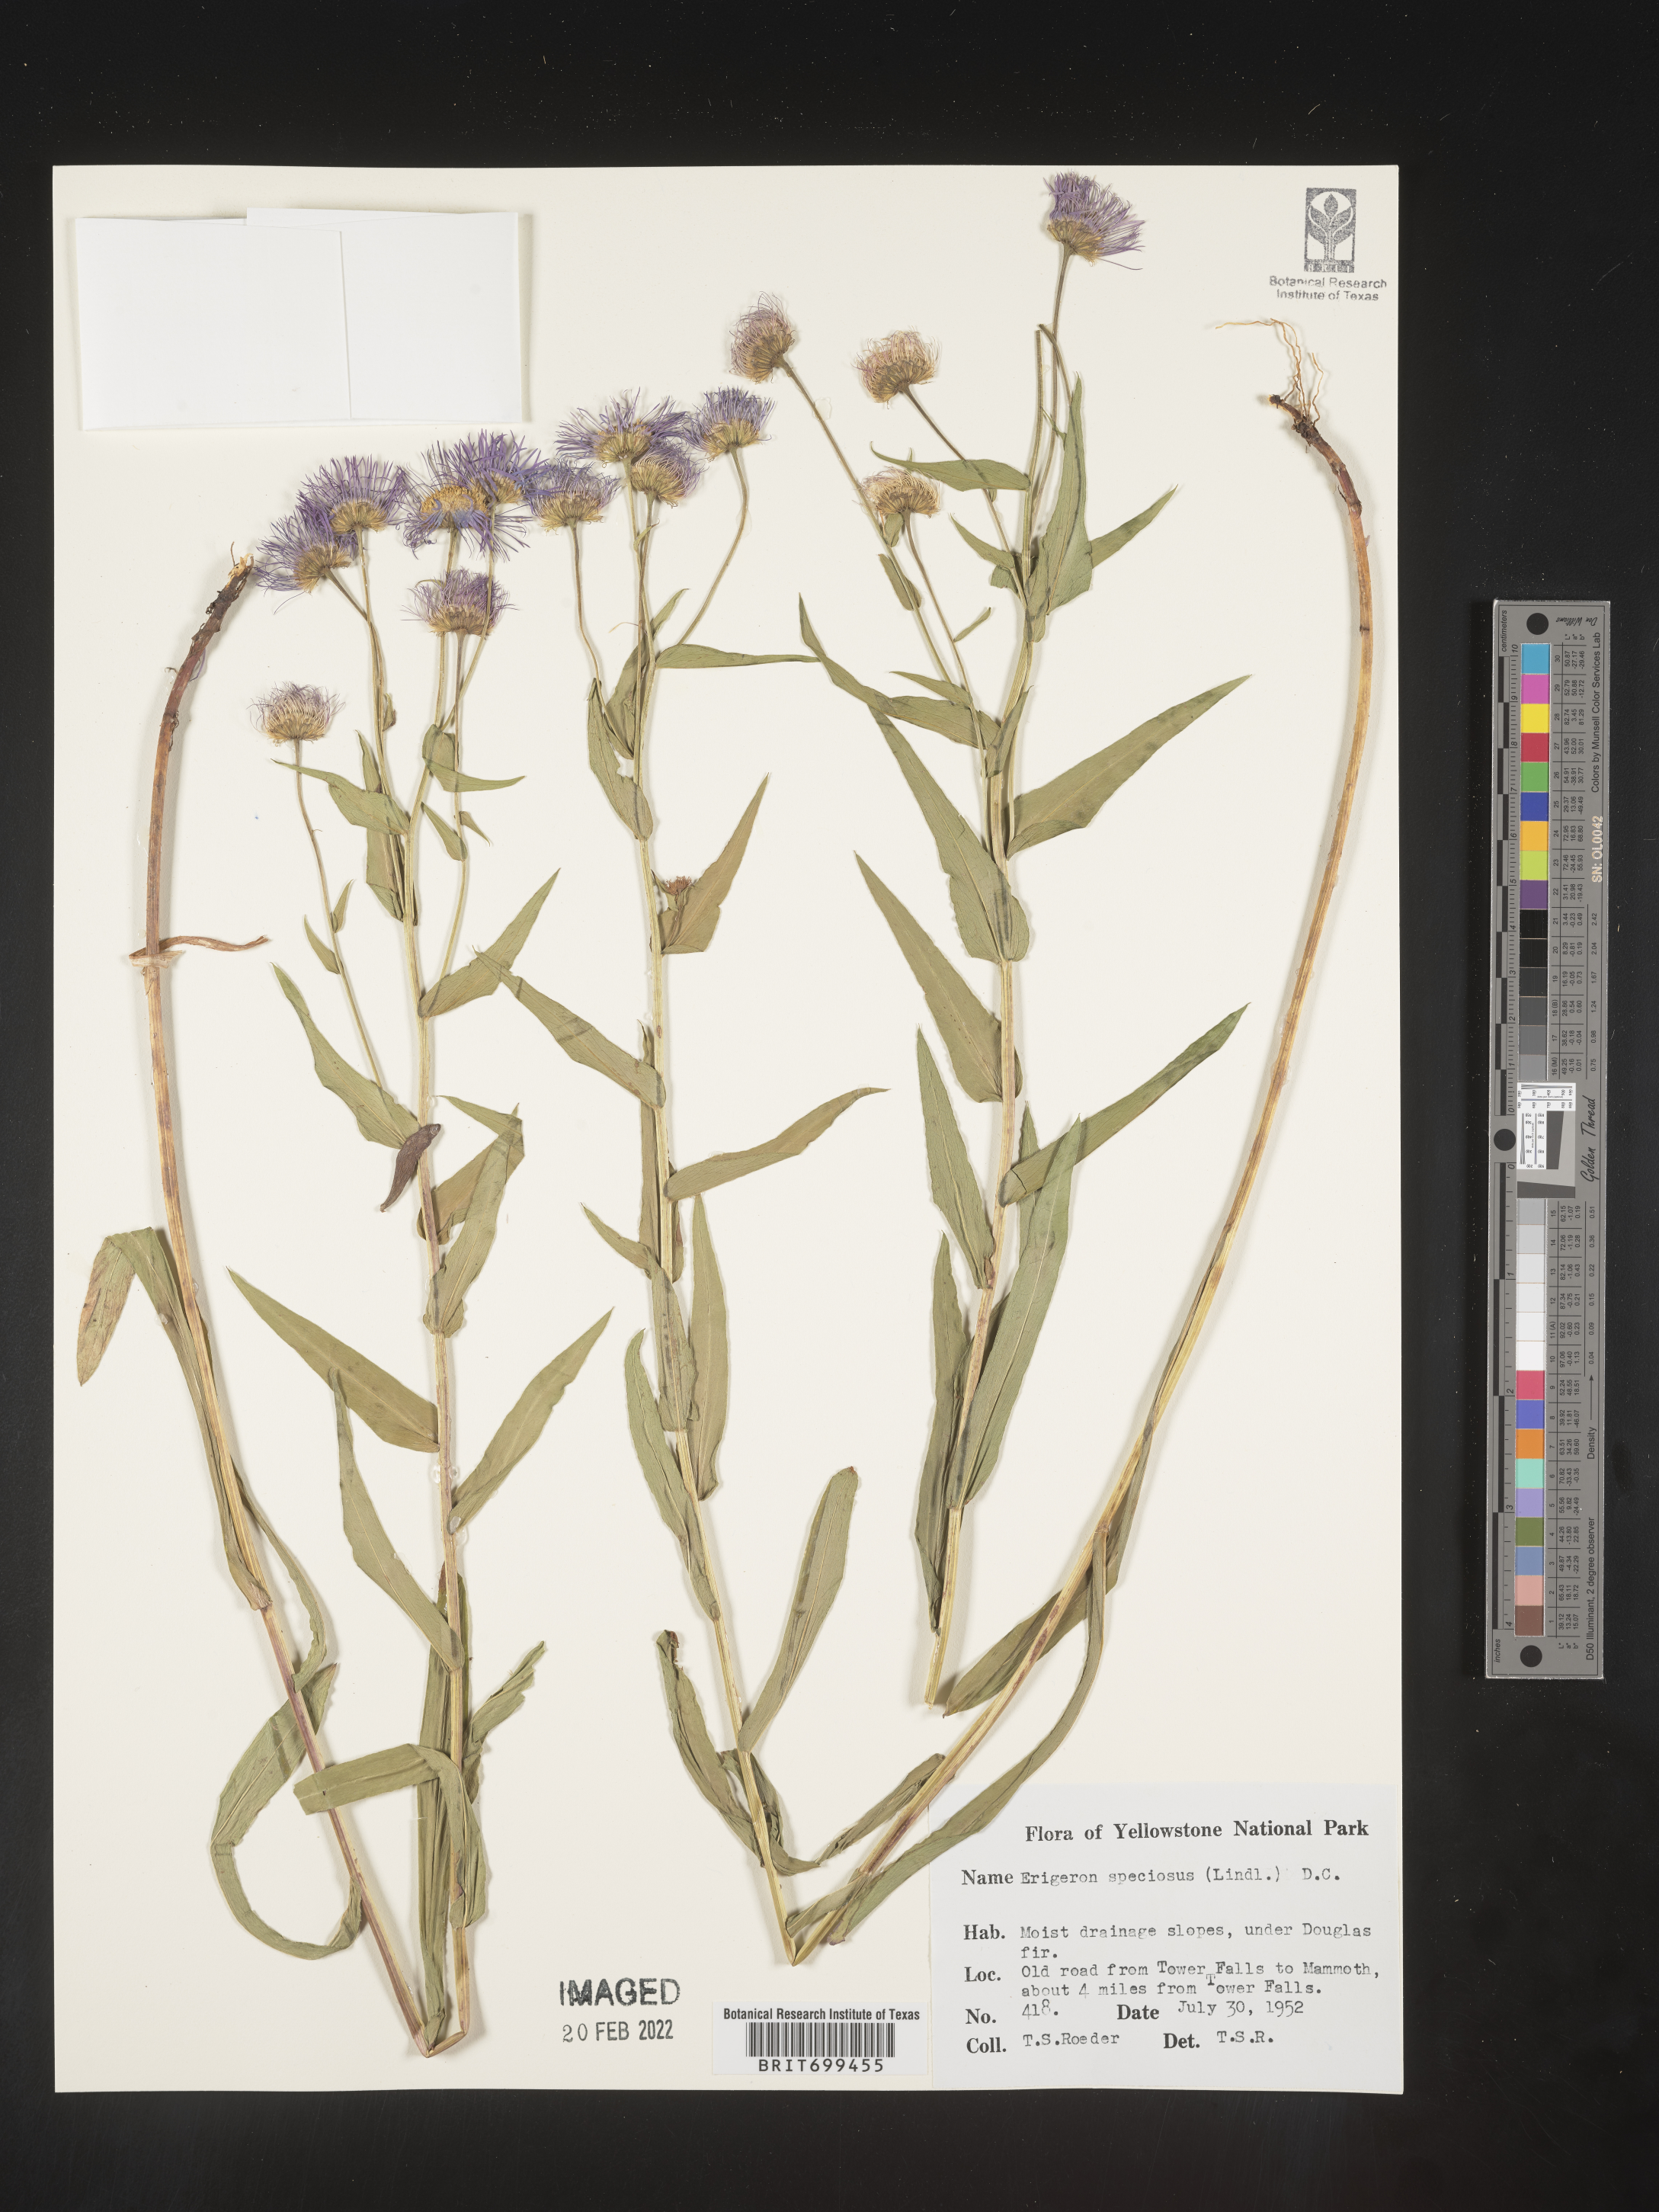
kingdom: Plantae
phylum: Tracheophyta
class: Magnoliopsida
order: Asterales
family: Asteraceae
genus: Erigeron
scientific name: Erigeron speciosus
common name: Aspen fleabane
